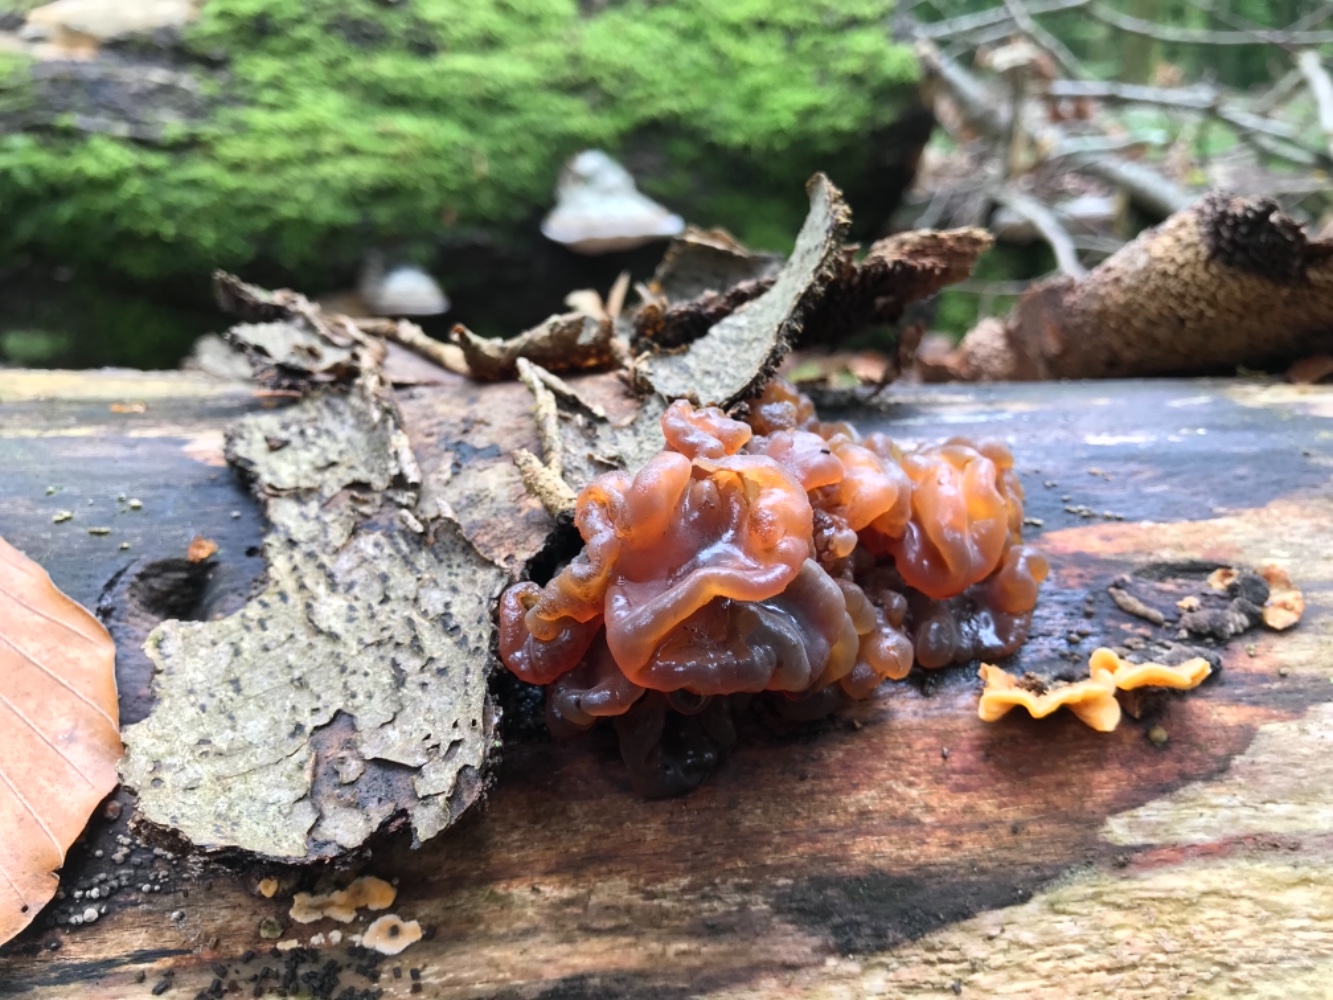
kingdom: Fungi
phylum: Basidiomycota
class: Tremellomycetes
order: Tremellales
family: Tremellaceae
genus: Phaeotremella
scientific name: Phaeotremella frondosa
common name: kæmpe-bævresvamp
